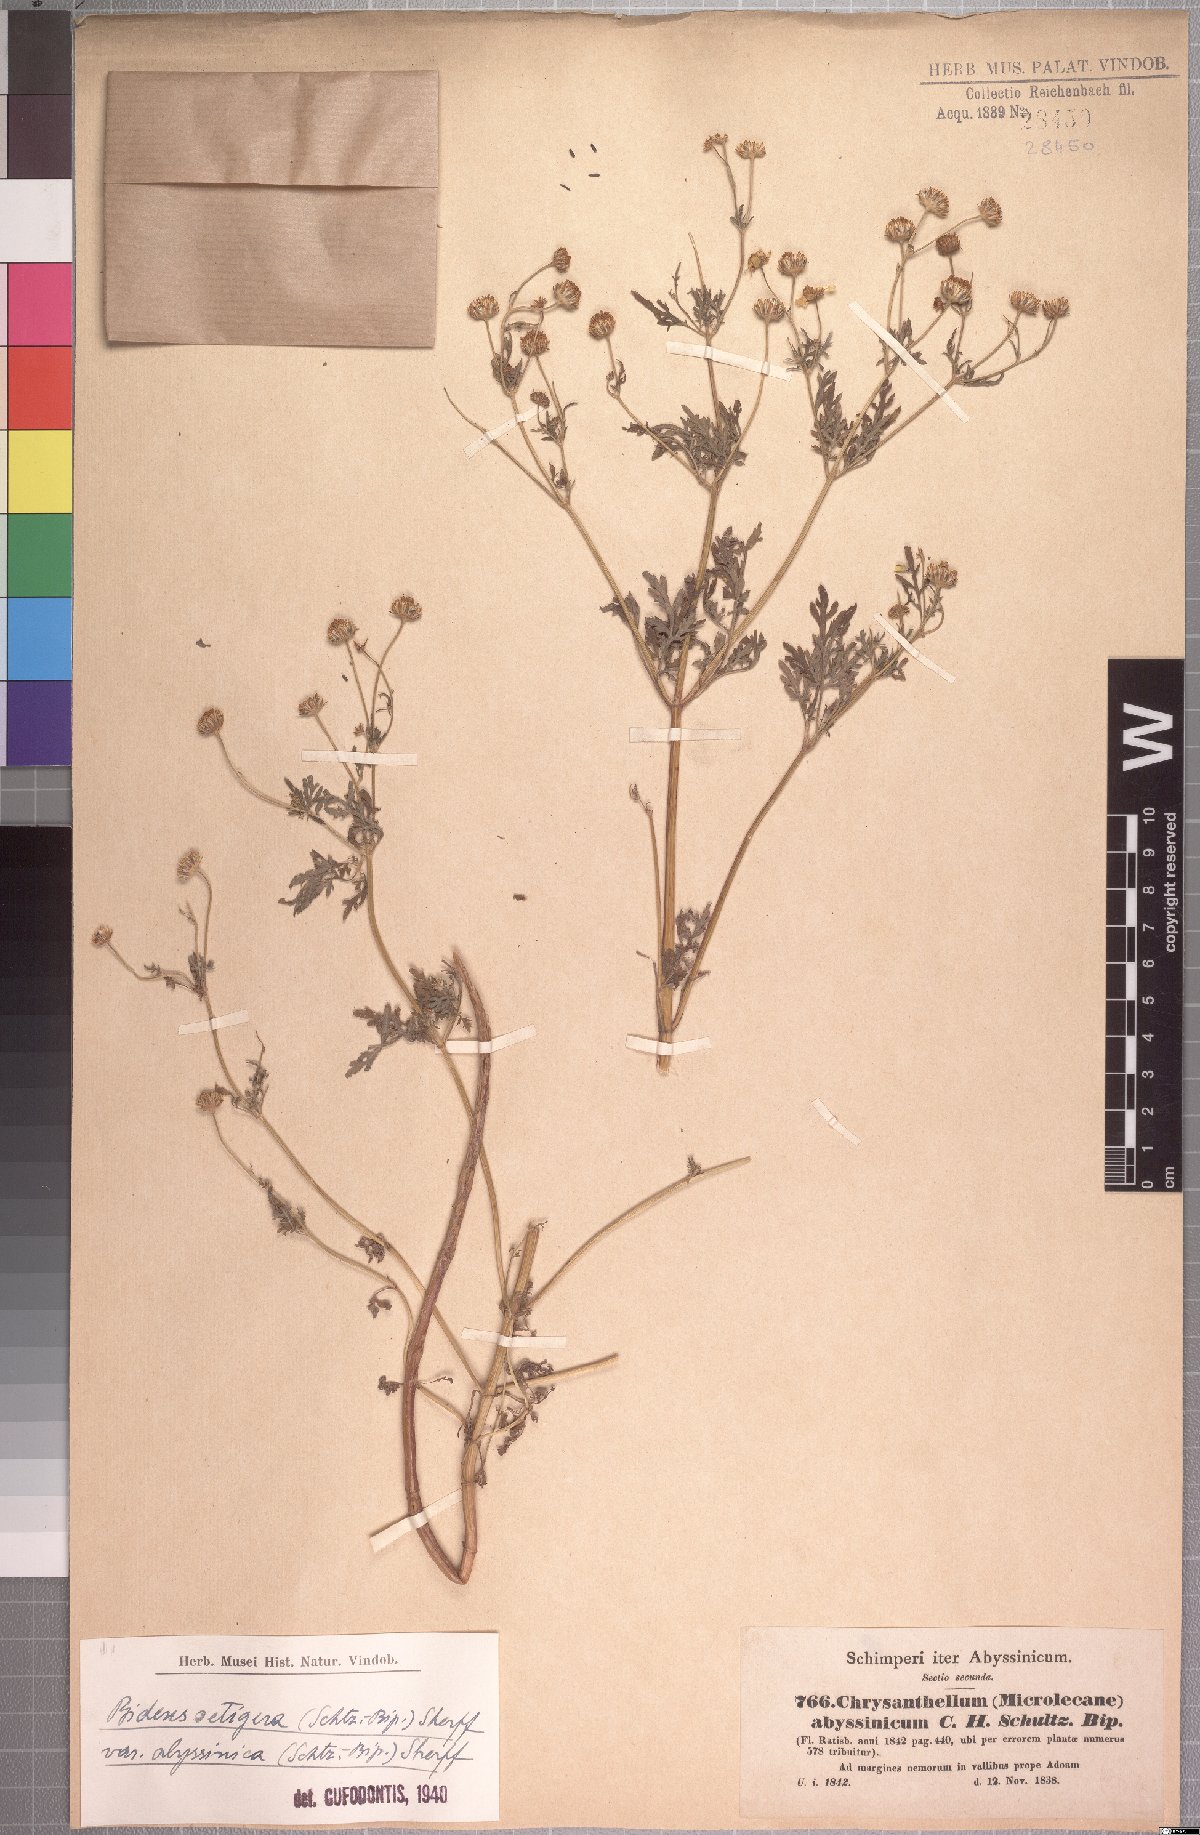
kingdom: Plantae
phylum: Tracheophyta
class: Magnoliopsida
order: Asterales
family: Asteraceae
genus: Bidens
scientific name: Bidens setigera
